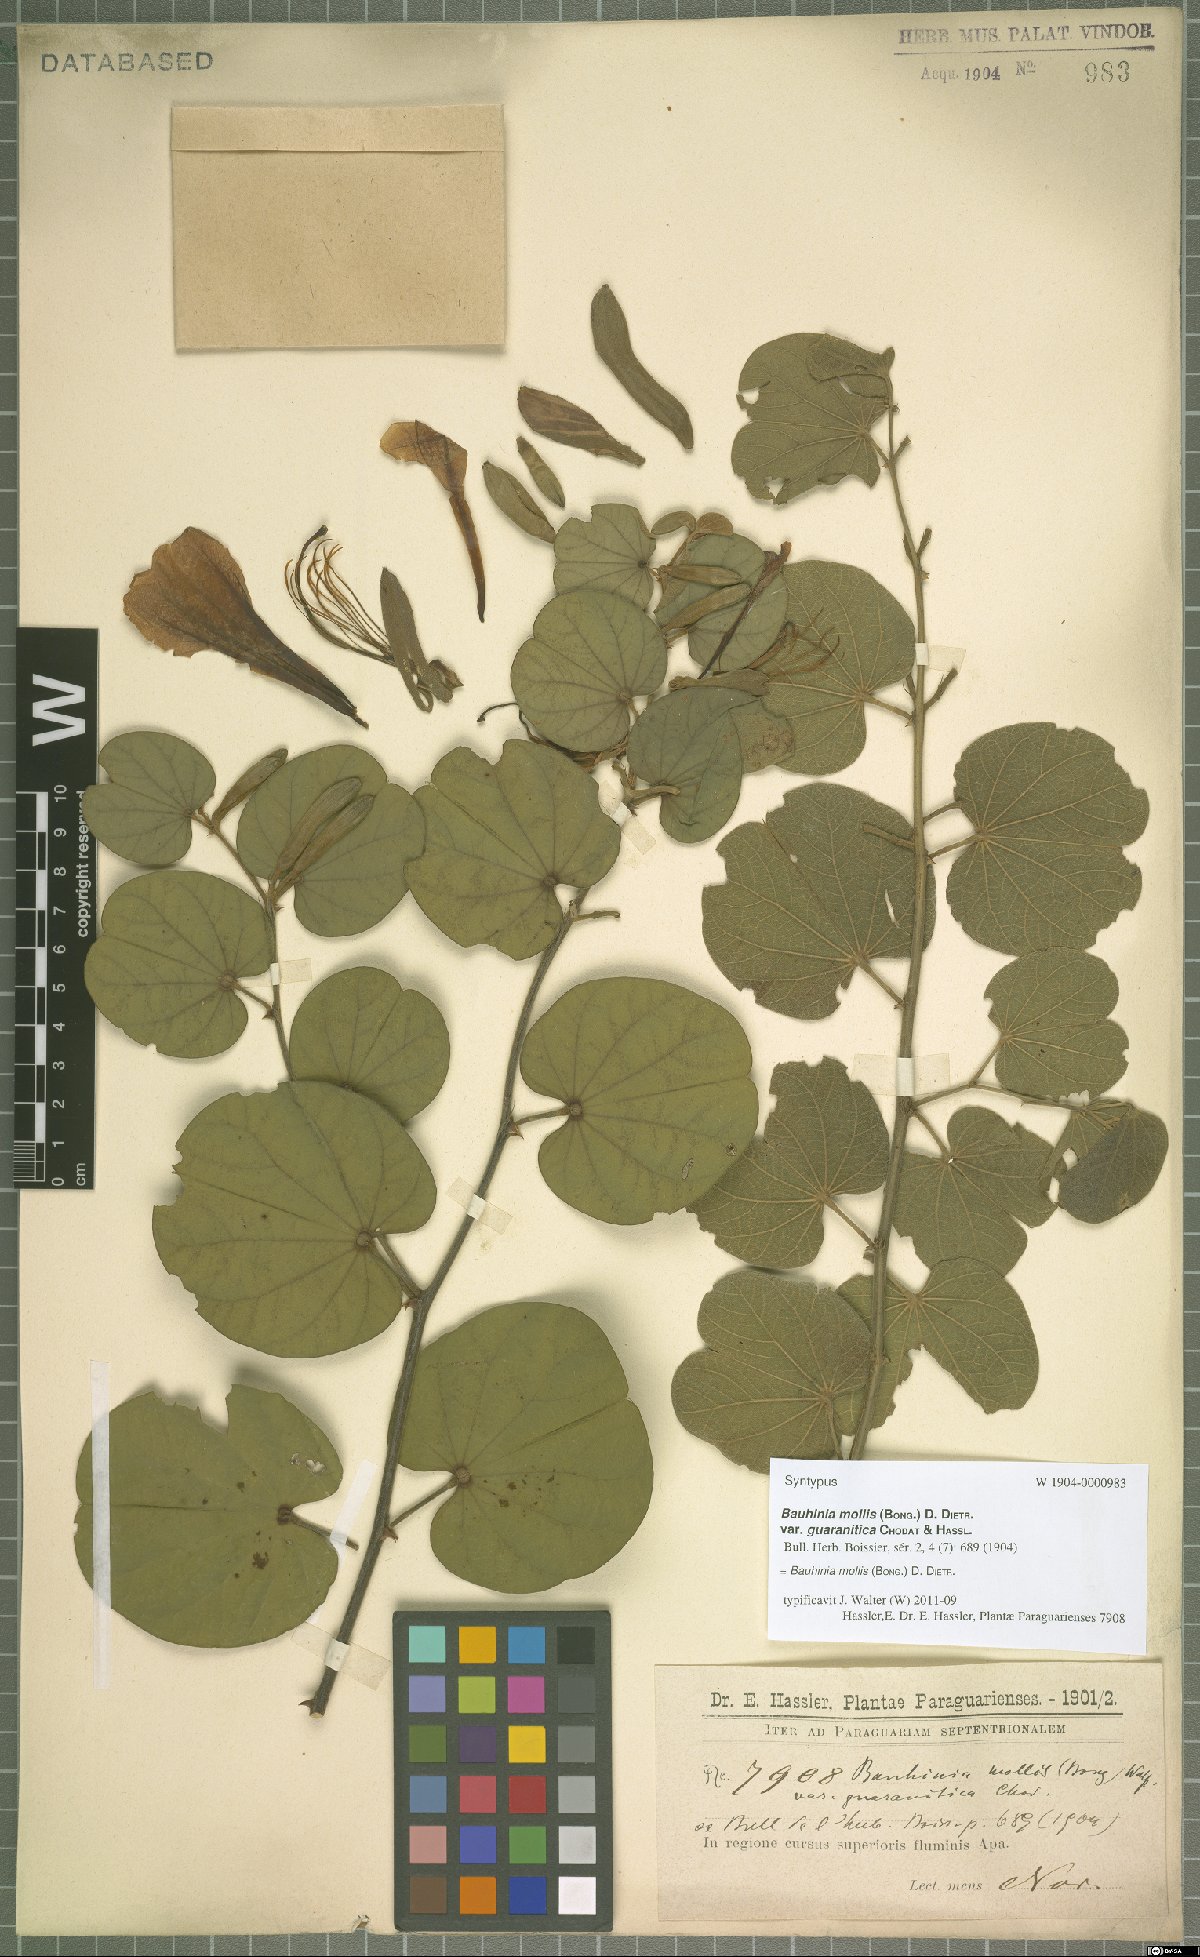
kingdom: Plantae
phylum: Tracheophyta
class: Magnoliopsida
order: Fabales
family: Fabaceae
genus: Bauhinia
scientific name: Bauhinia mollis
